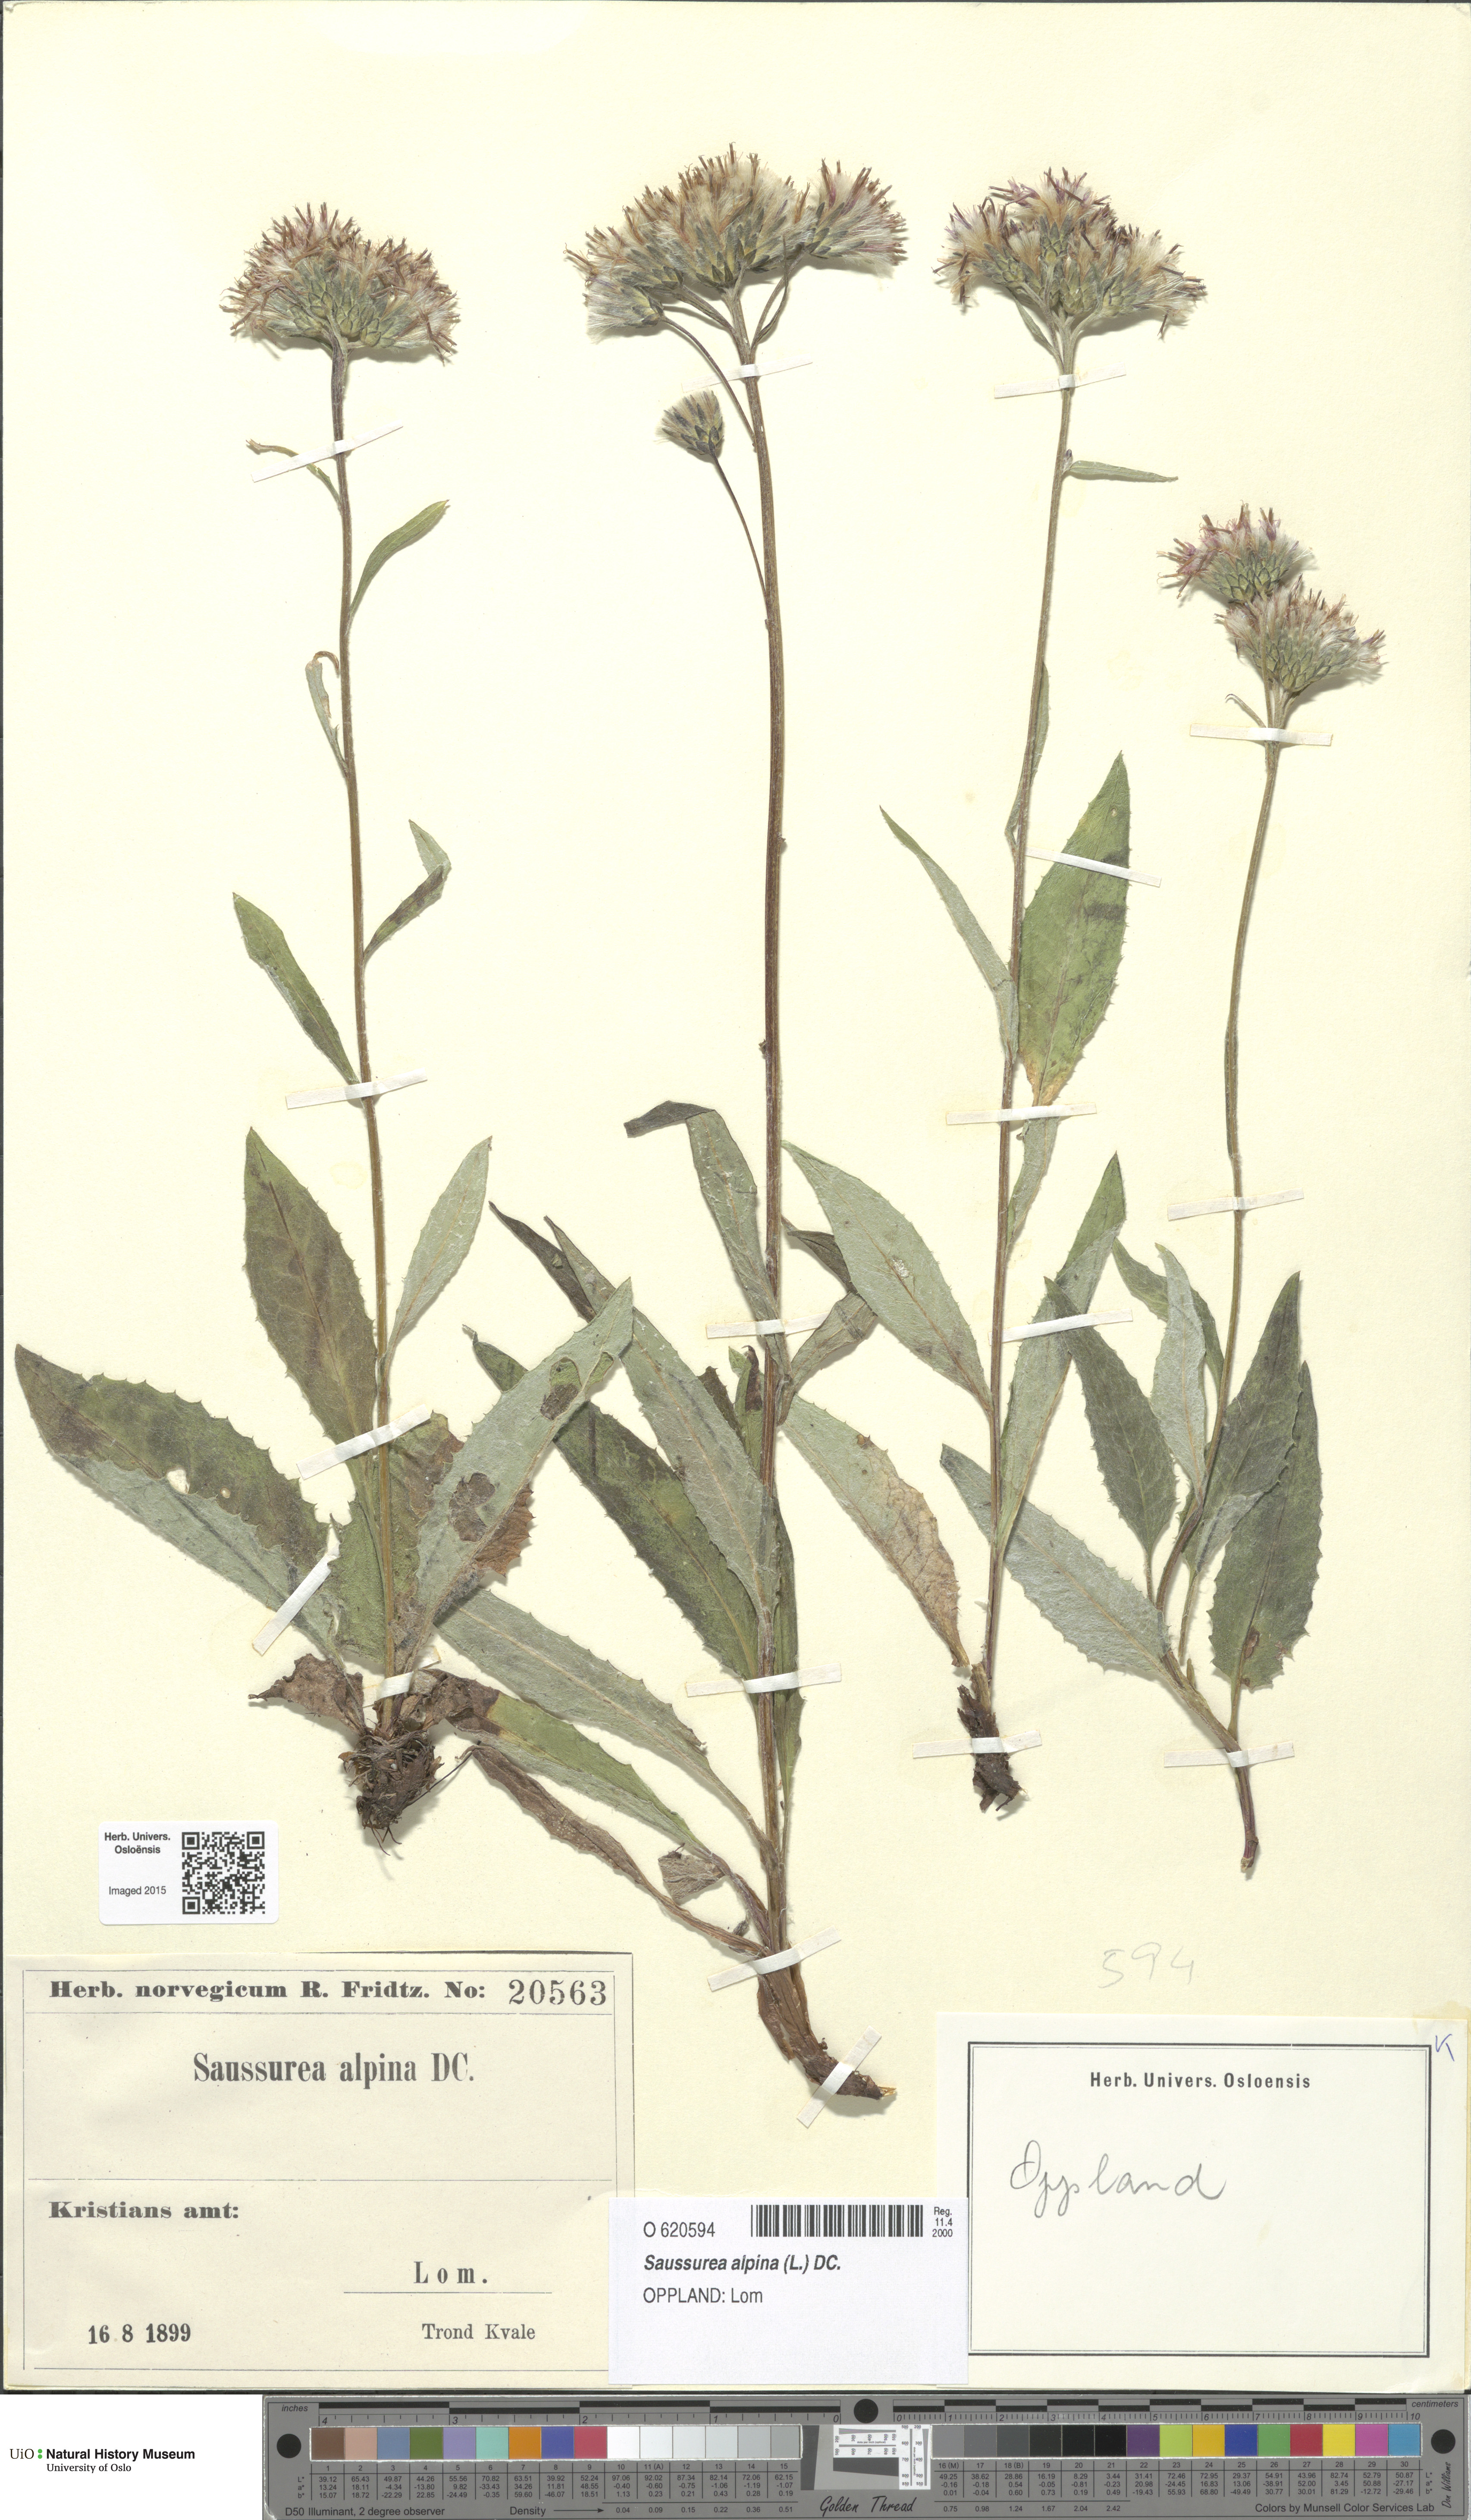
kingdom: Plantae
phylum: Tracheophyta
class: Magnoliopsida
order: Asterales
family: Asteraceae
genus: Saussurea
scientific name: Saussurea alpina
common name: Alpine saw-wort
